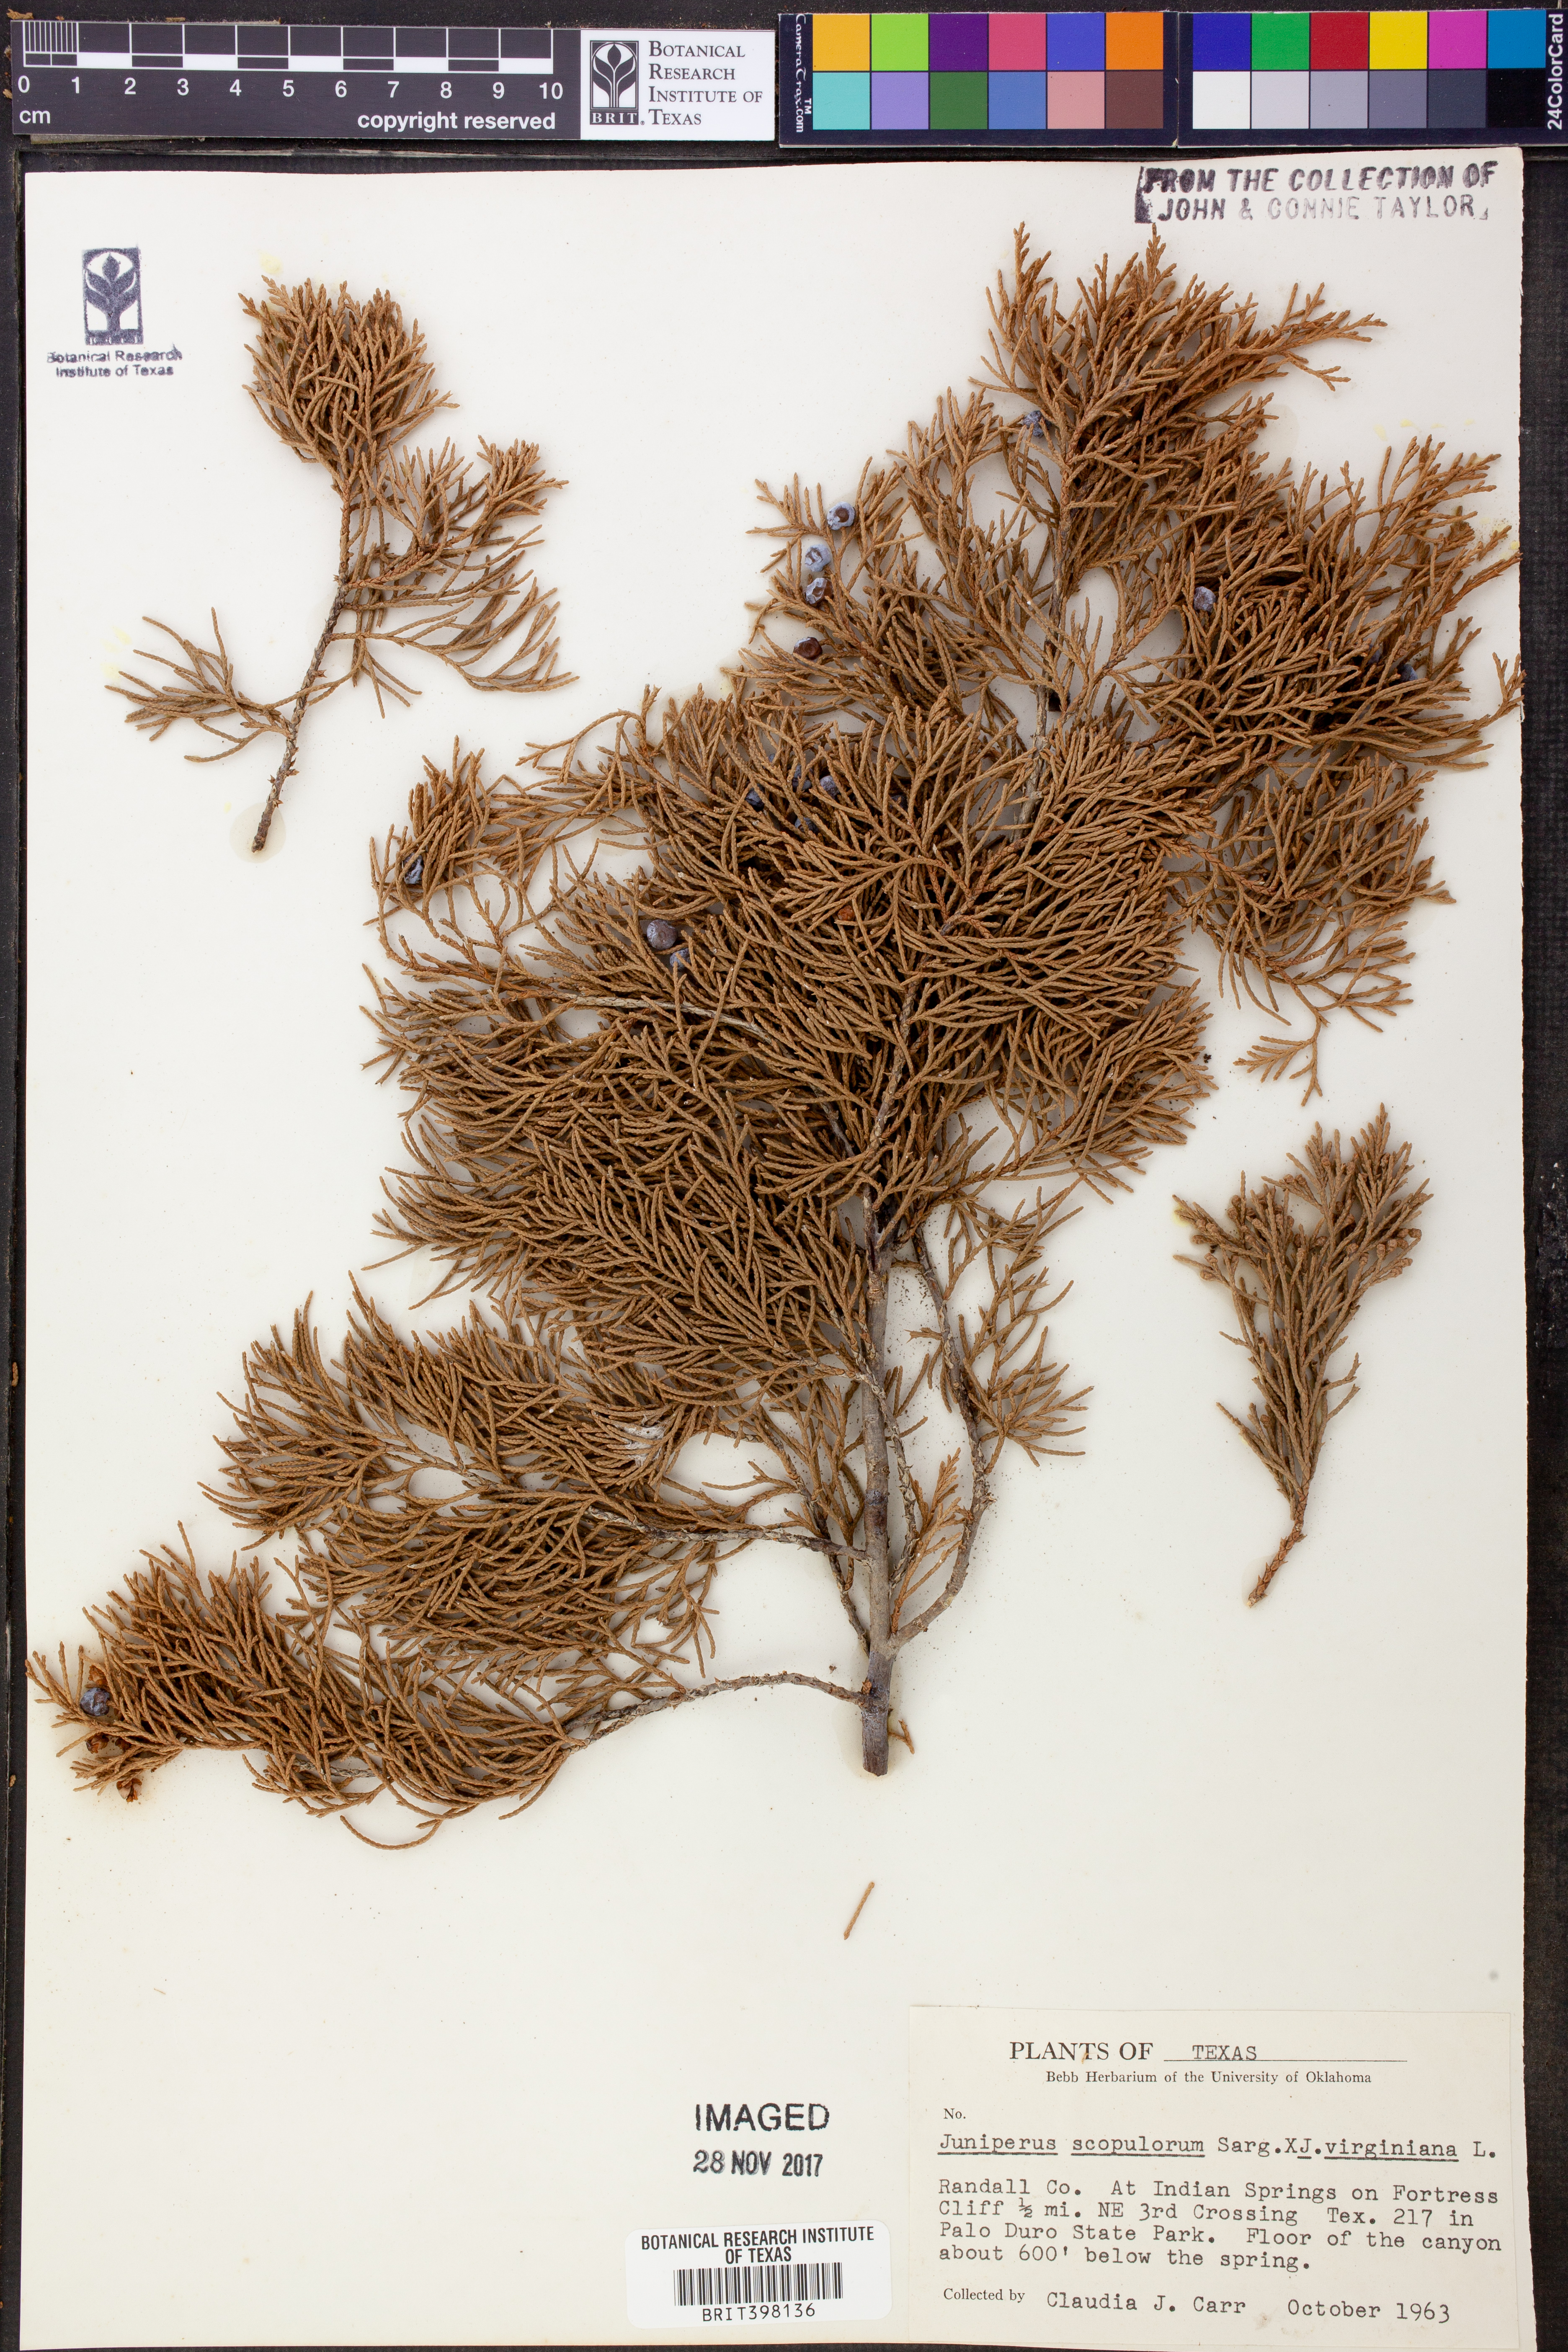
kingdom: Plantae
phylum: Tracheophyta
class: Pinopsida
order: Pinales
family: Cupressaceae
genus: Juniperus
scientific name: Juniperus scopulorum
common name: Rocky mountain juniper
